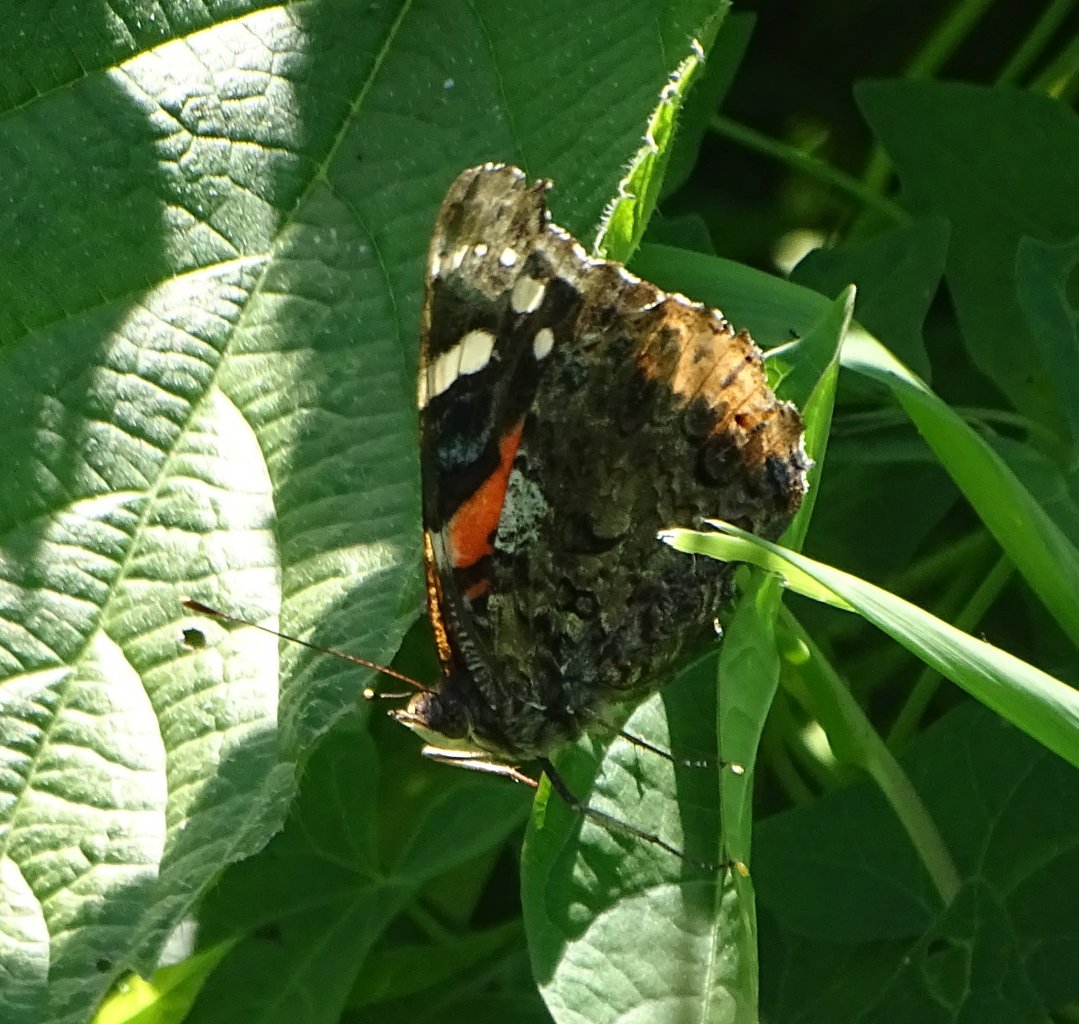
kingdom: Animalia
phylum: Arthropoda
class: Insecta
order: Lepidoptera
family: Nymphalidae
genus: Vanessa
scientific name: Vanessa atalanta
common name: Red Admiral
